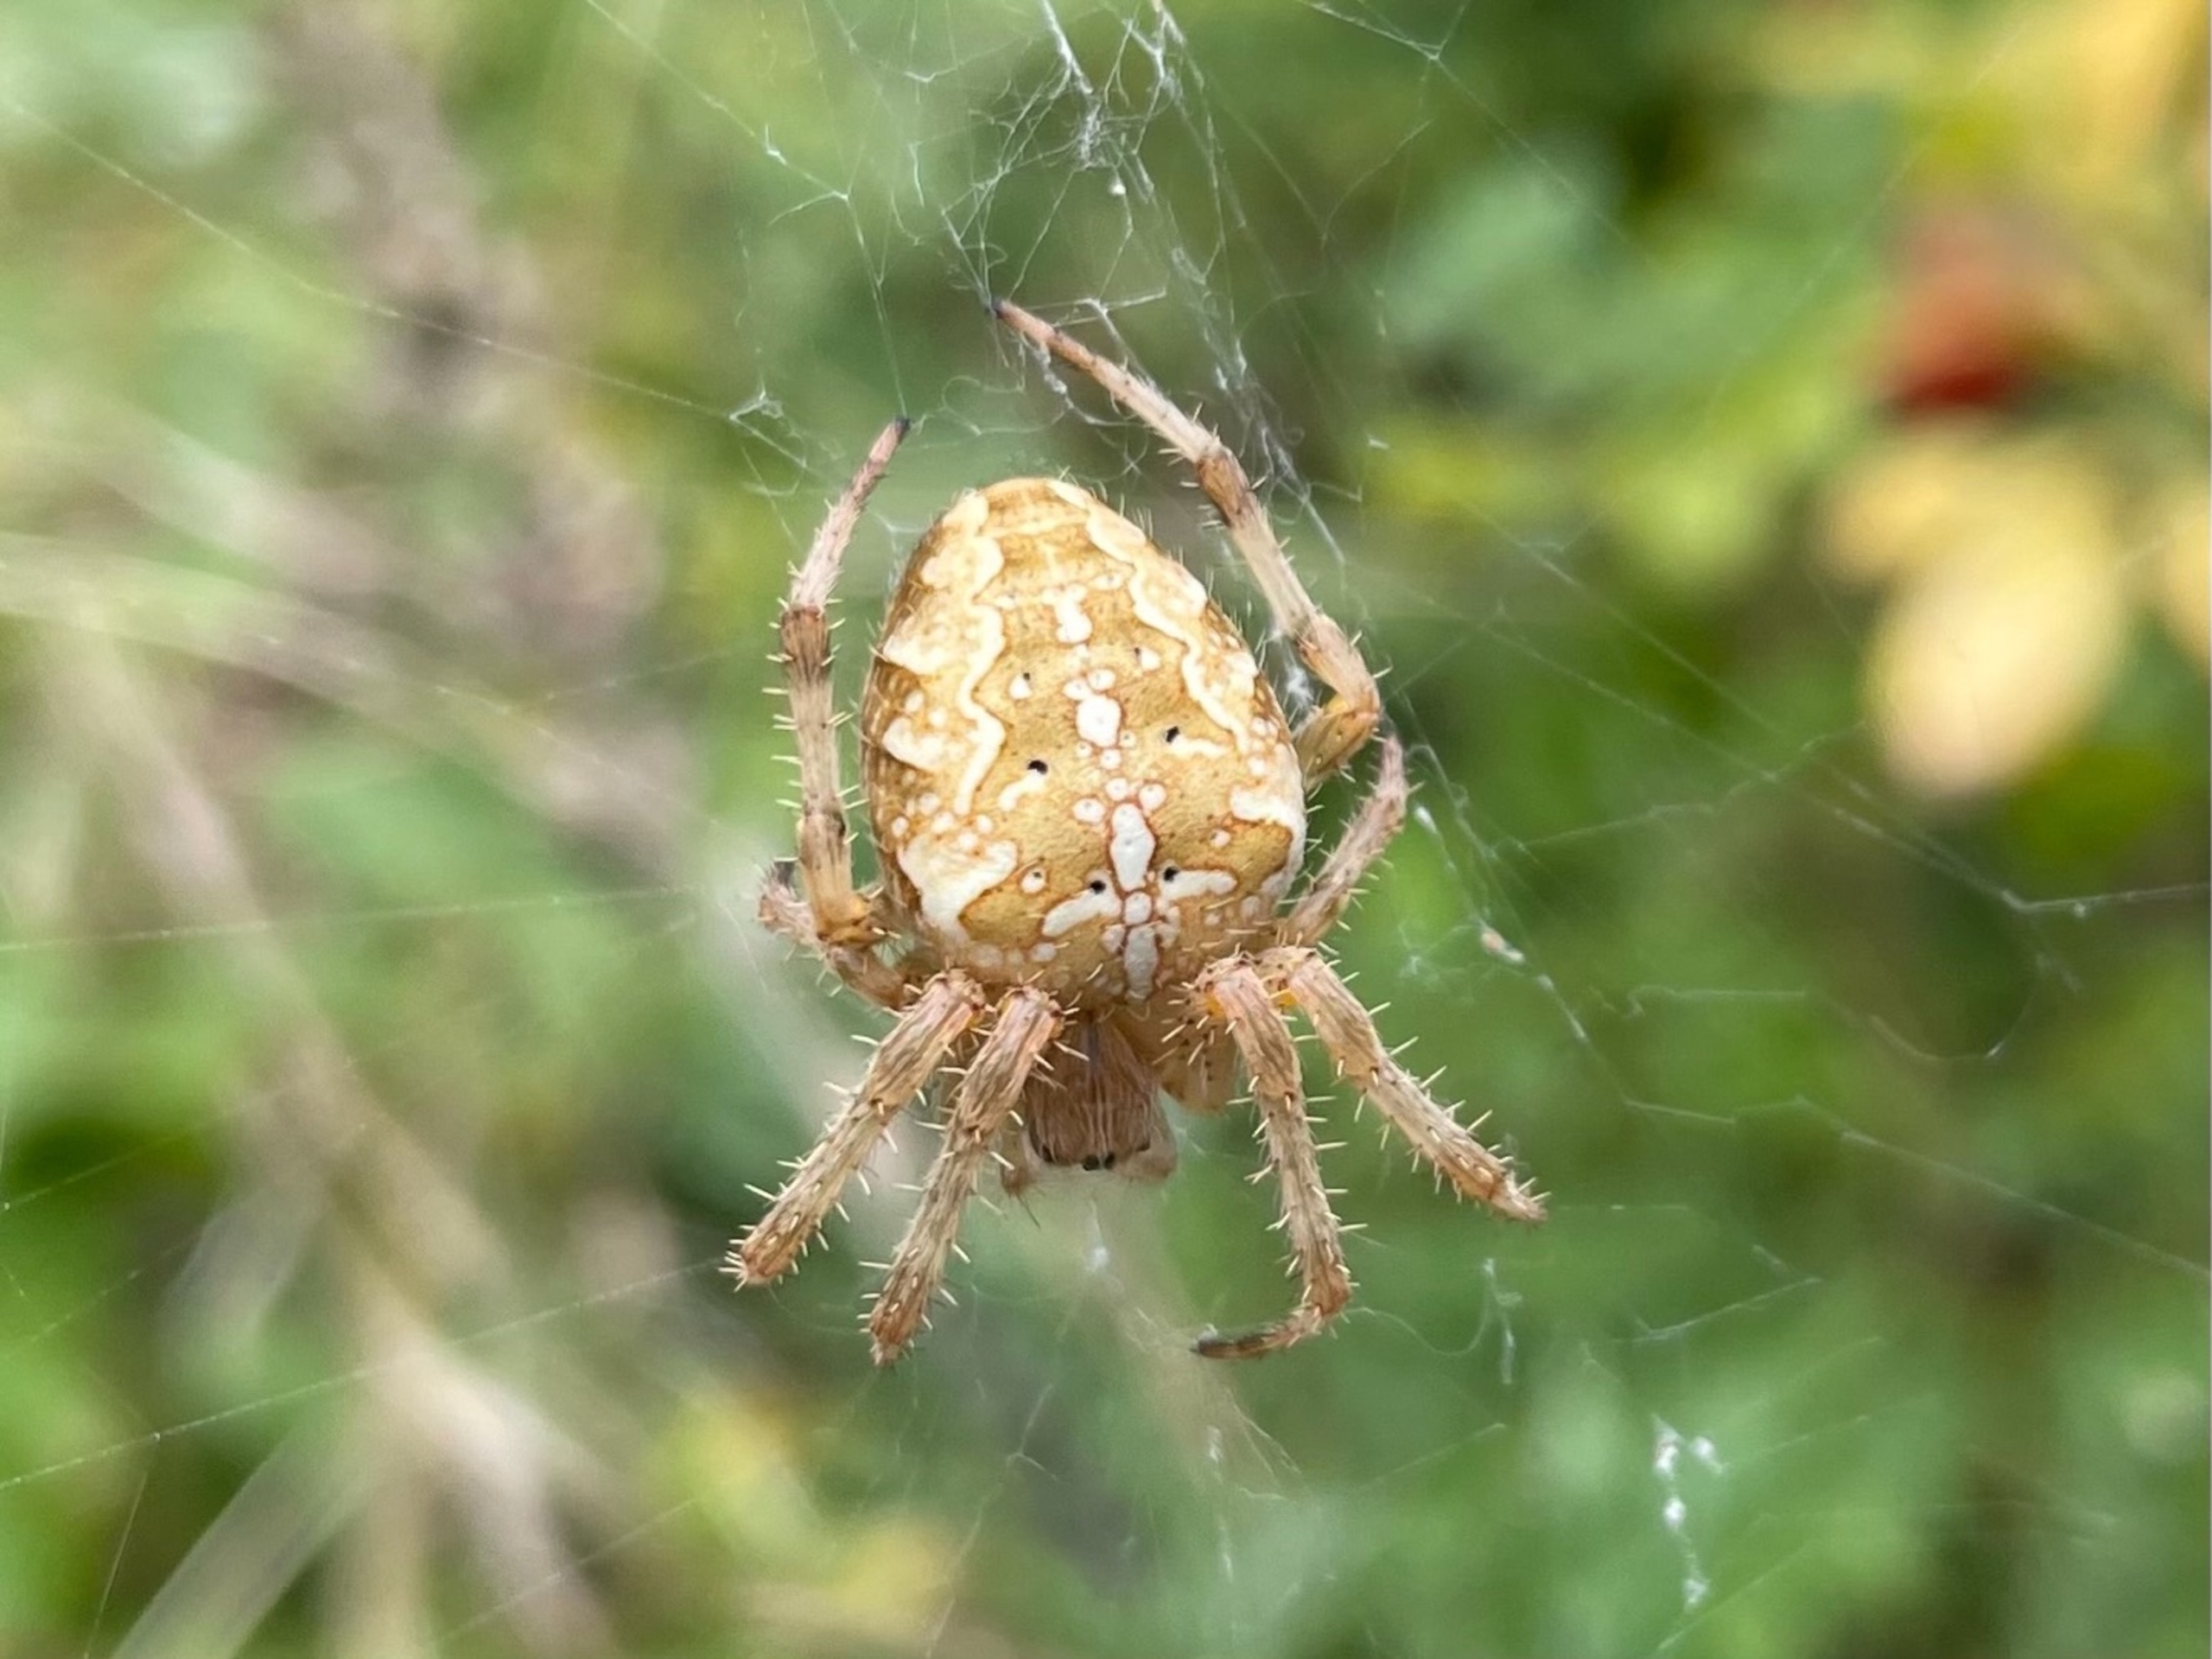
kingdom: Animalia
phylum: Arthropoda
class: Arachnida
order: Araneae
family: Araneidae
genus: Araneus
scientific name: Araneus diadematus
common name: Korsedderkop
